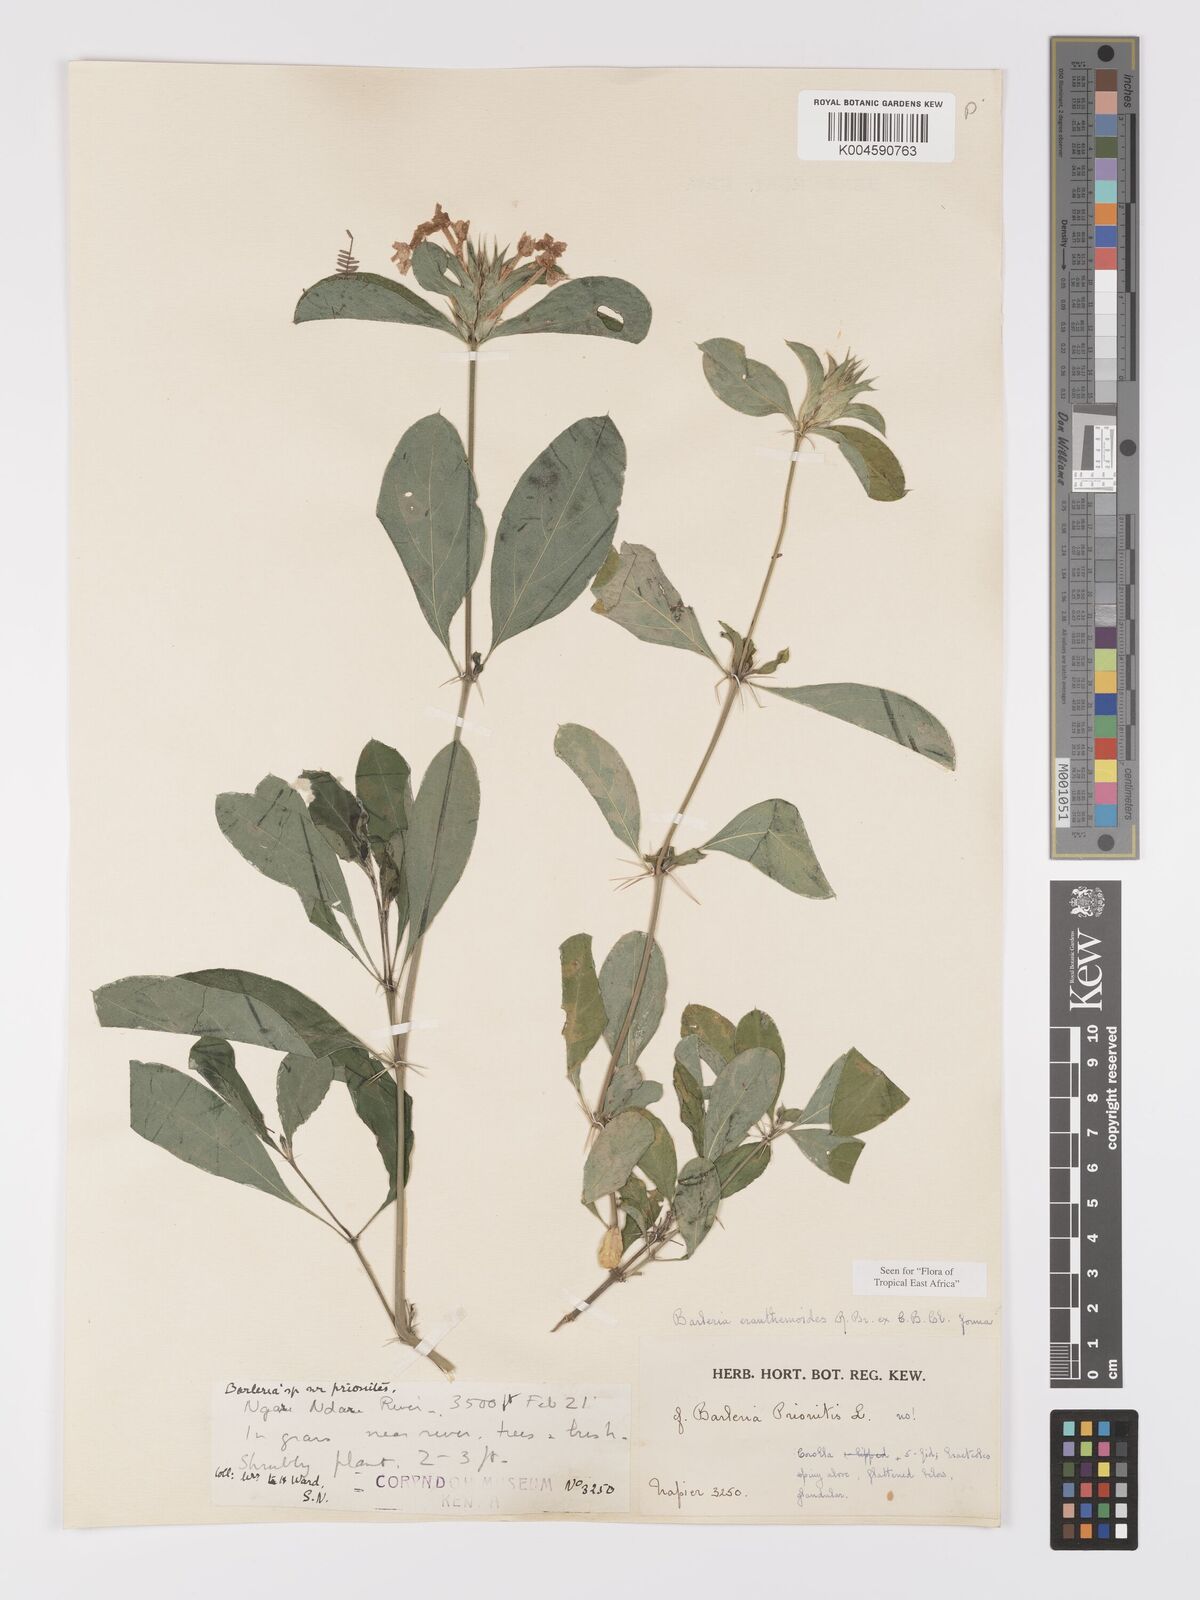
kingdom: Plantae
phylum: Tracheophyta
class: Magnoliopsida
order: Lamiales
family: Acanthaceae
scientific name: Acanthaceae
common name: Acanthaceae
